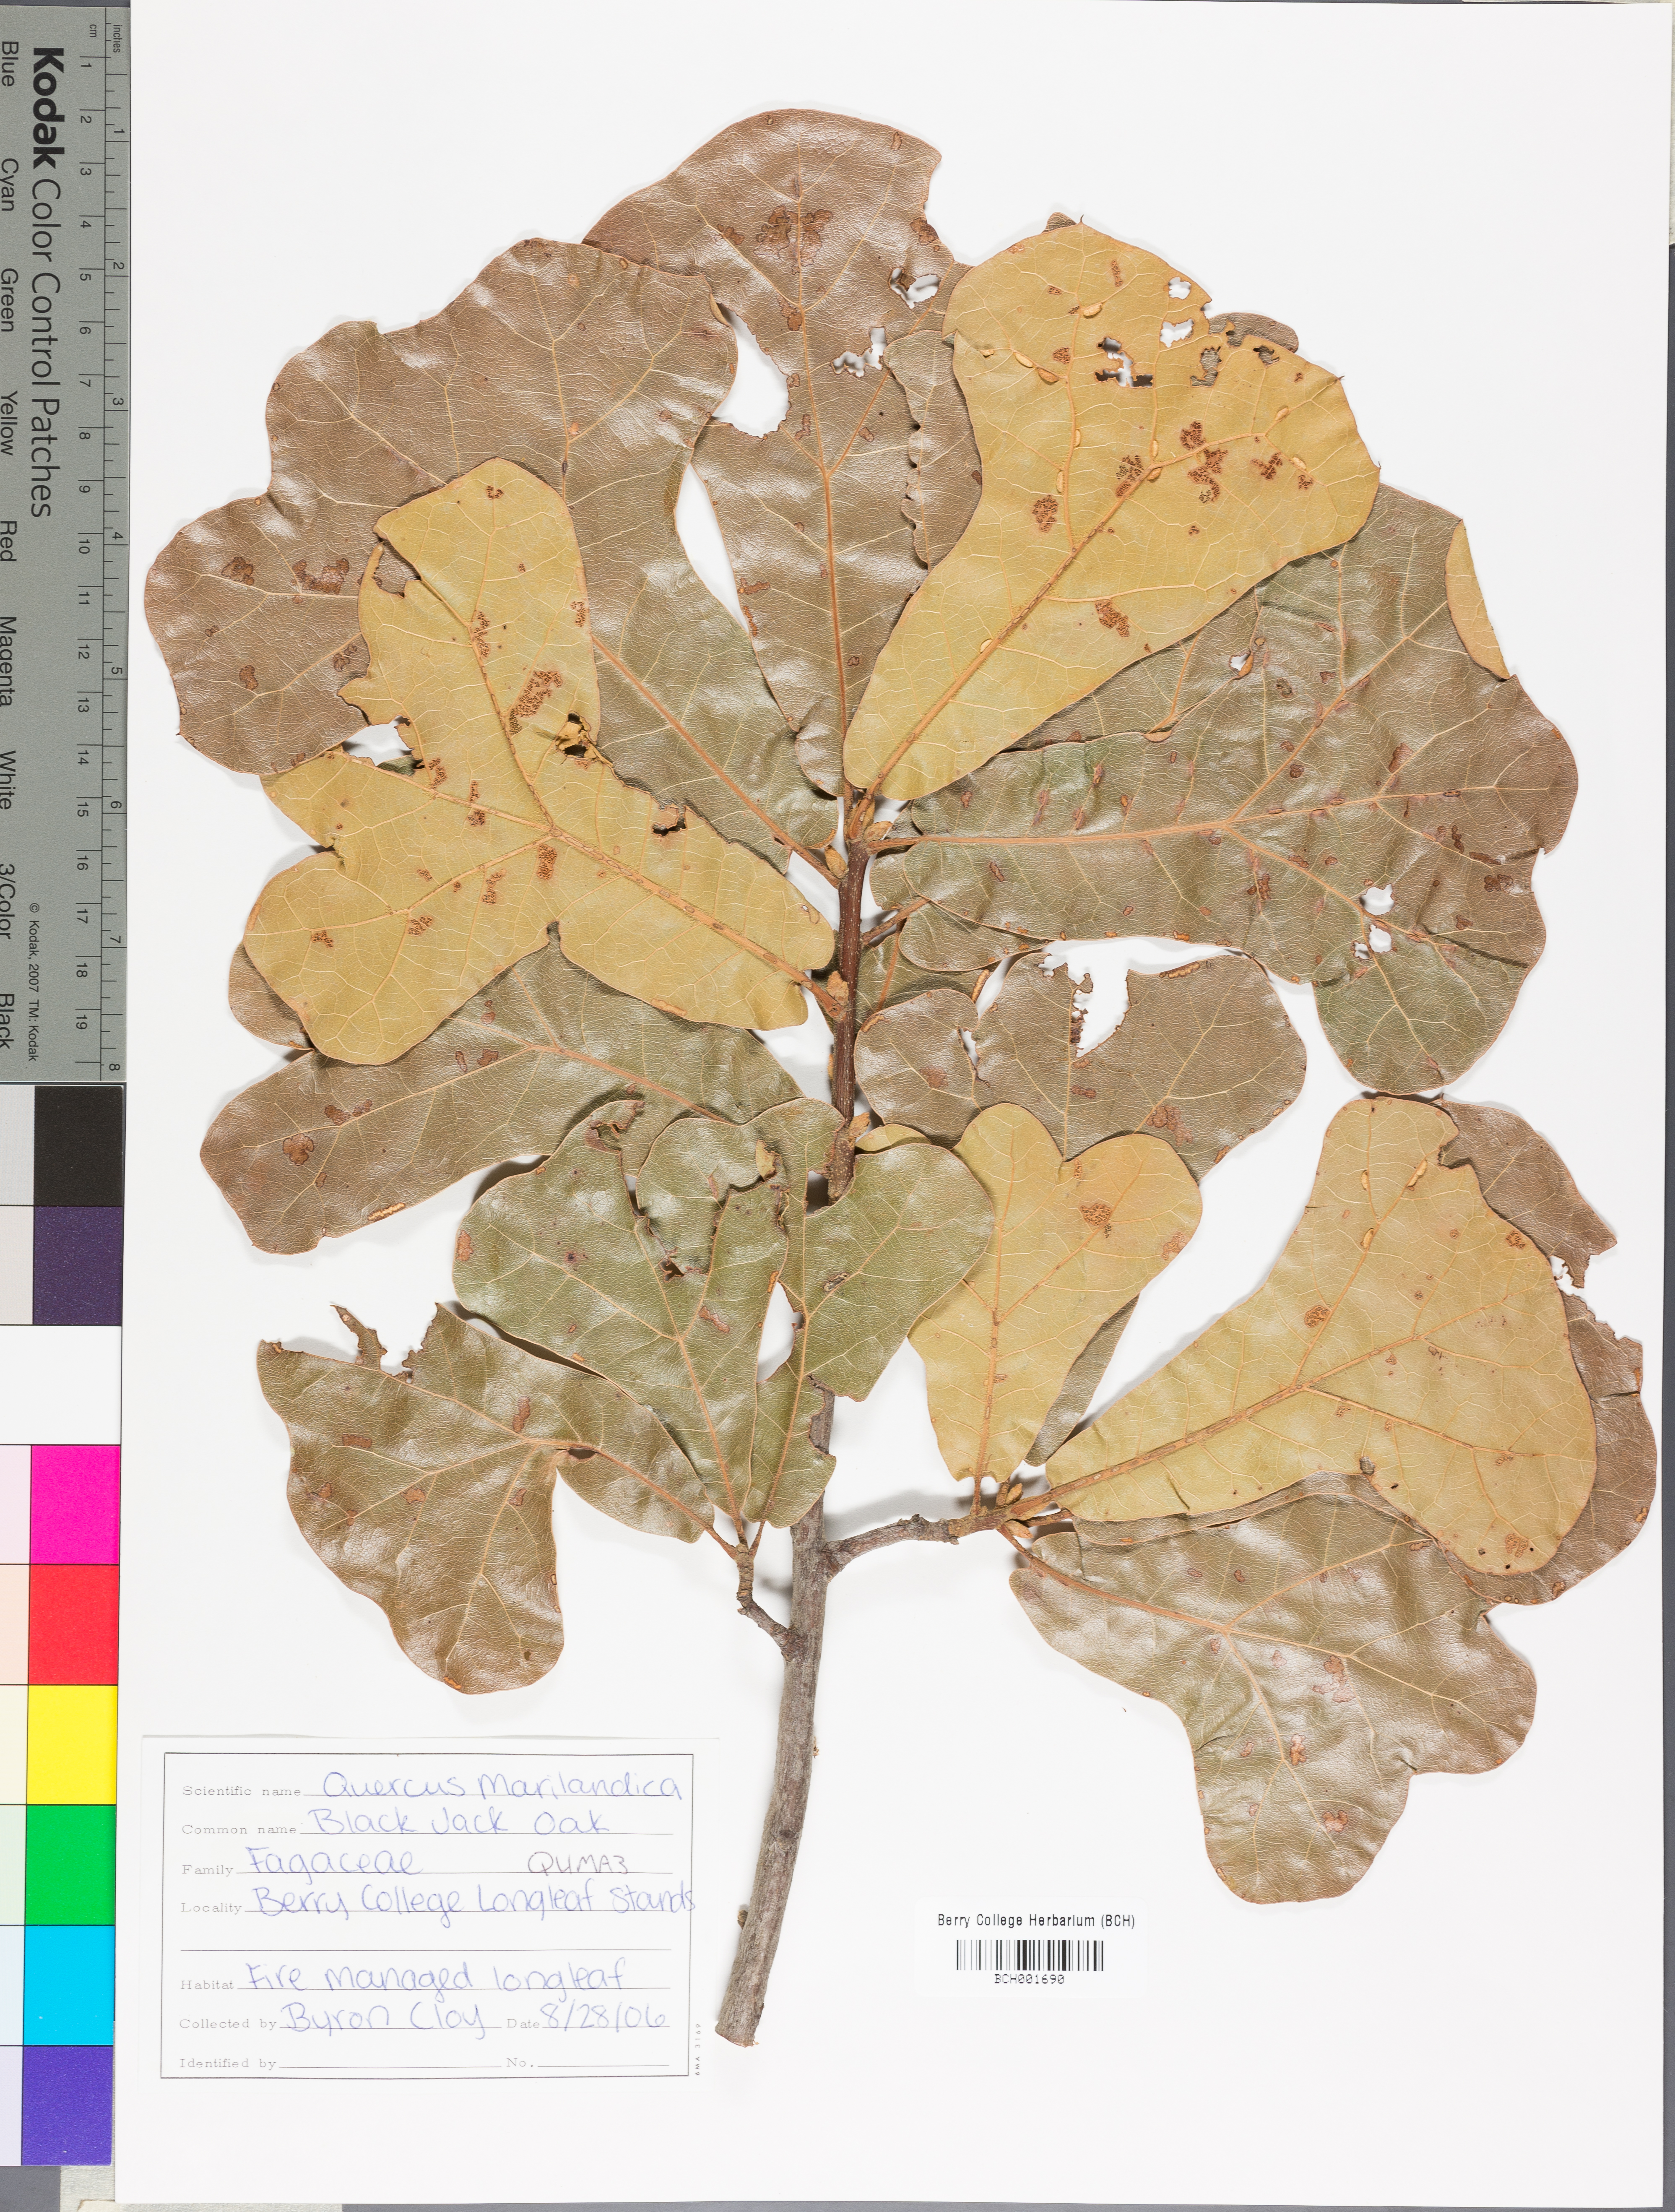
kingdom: Plantae
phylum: Tracheophyta
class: Magnoliopsida
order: Fagales
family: Fagaceae
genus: Quercus
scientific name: Quercus marilandica
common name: Blackjack oak
